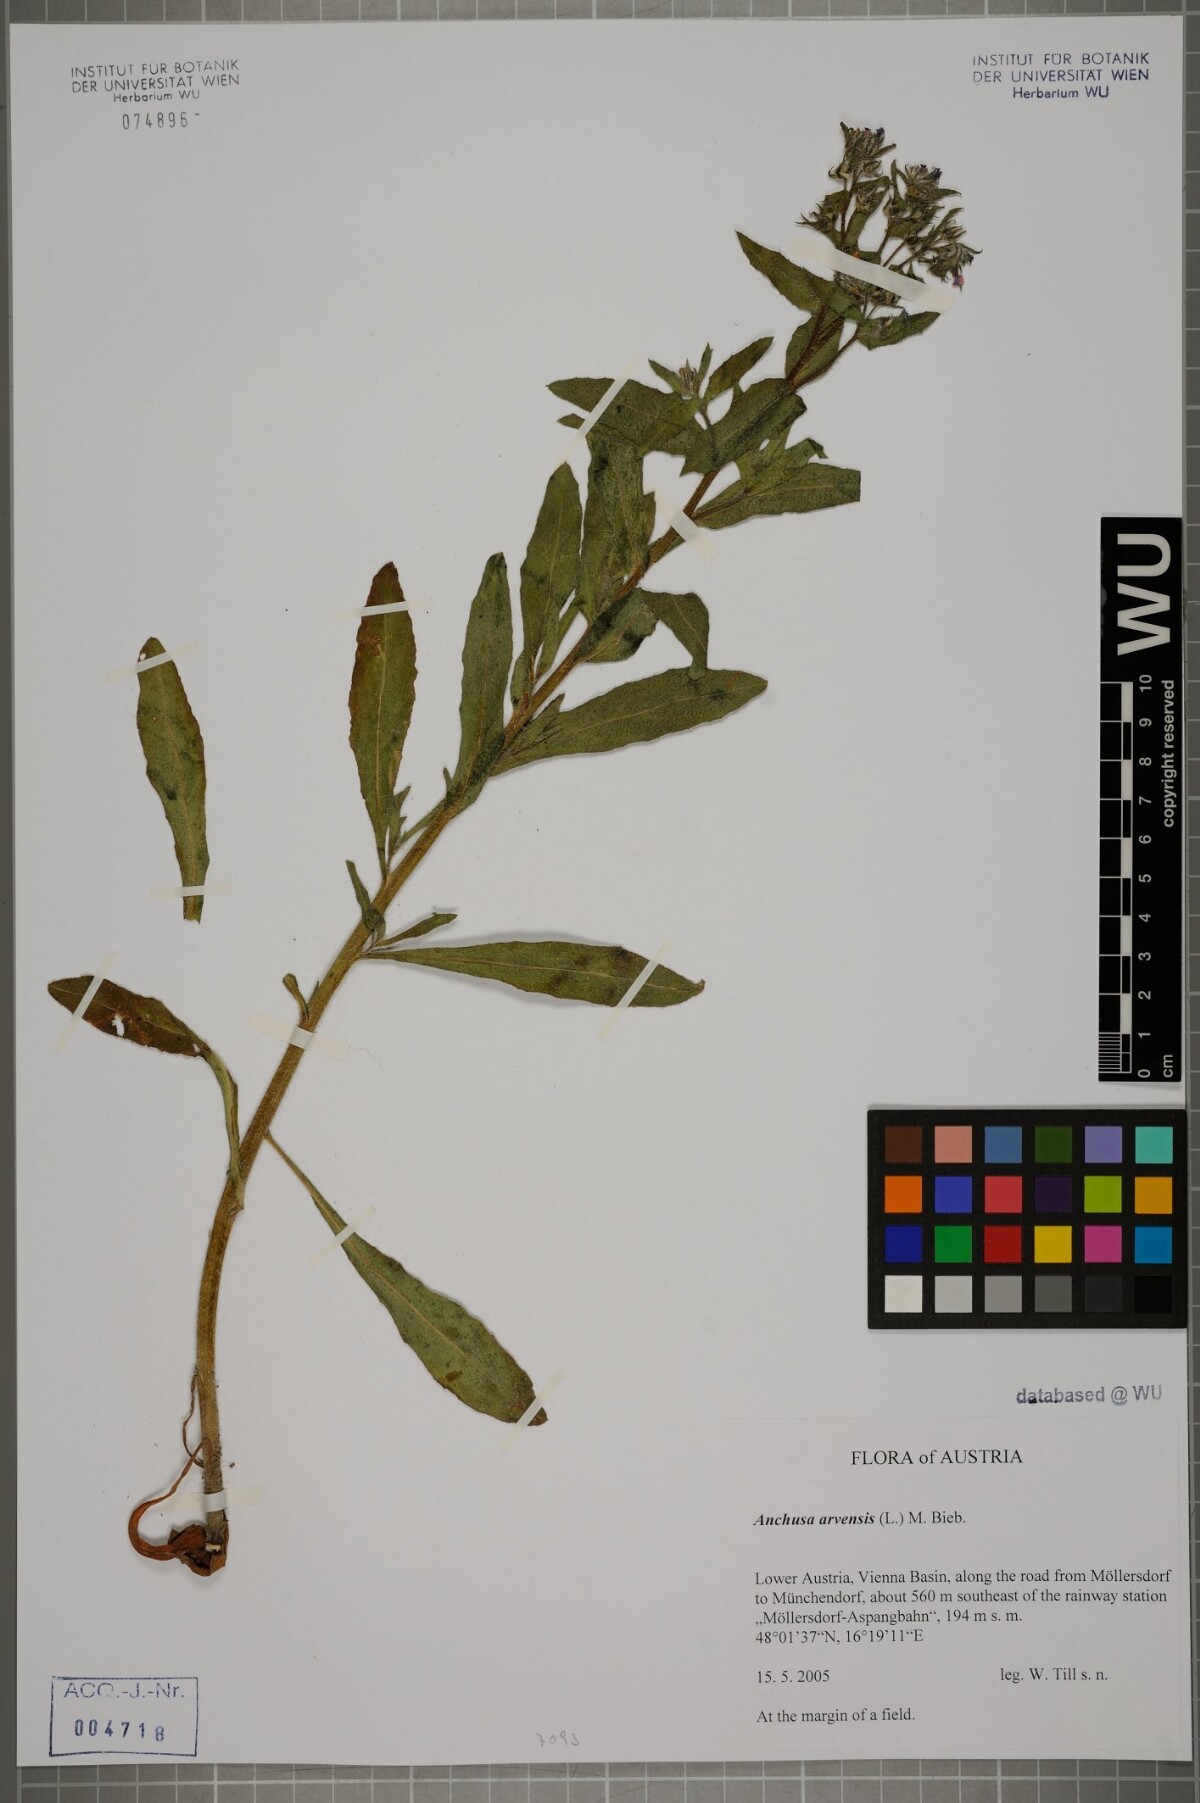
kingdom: Plantae
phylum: Tracheophyta
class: Magnoliopsida
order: Boraginales
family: Boraginaceae
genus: Lycopsis
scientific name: Lycopsis arvensis
